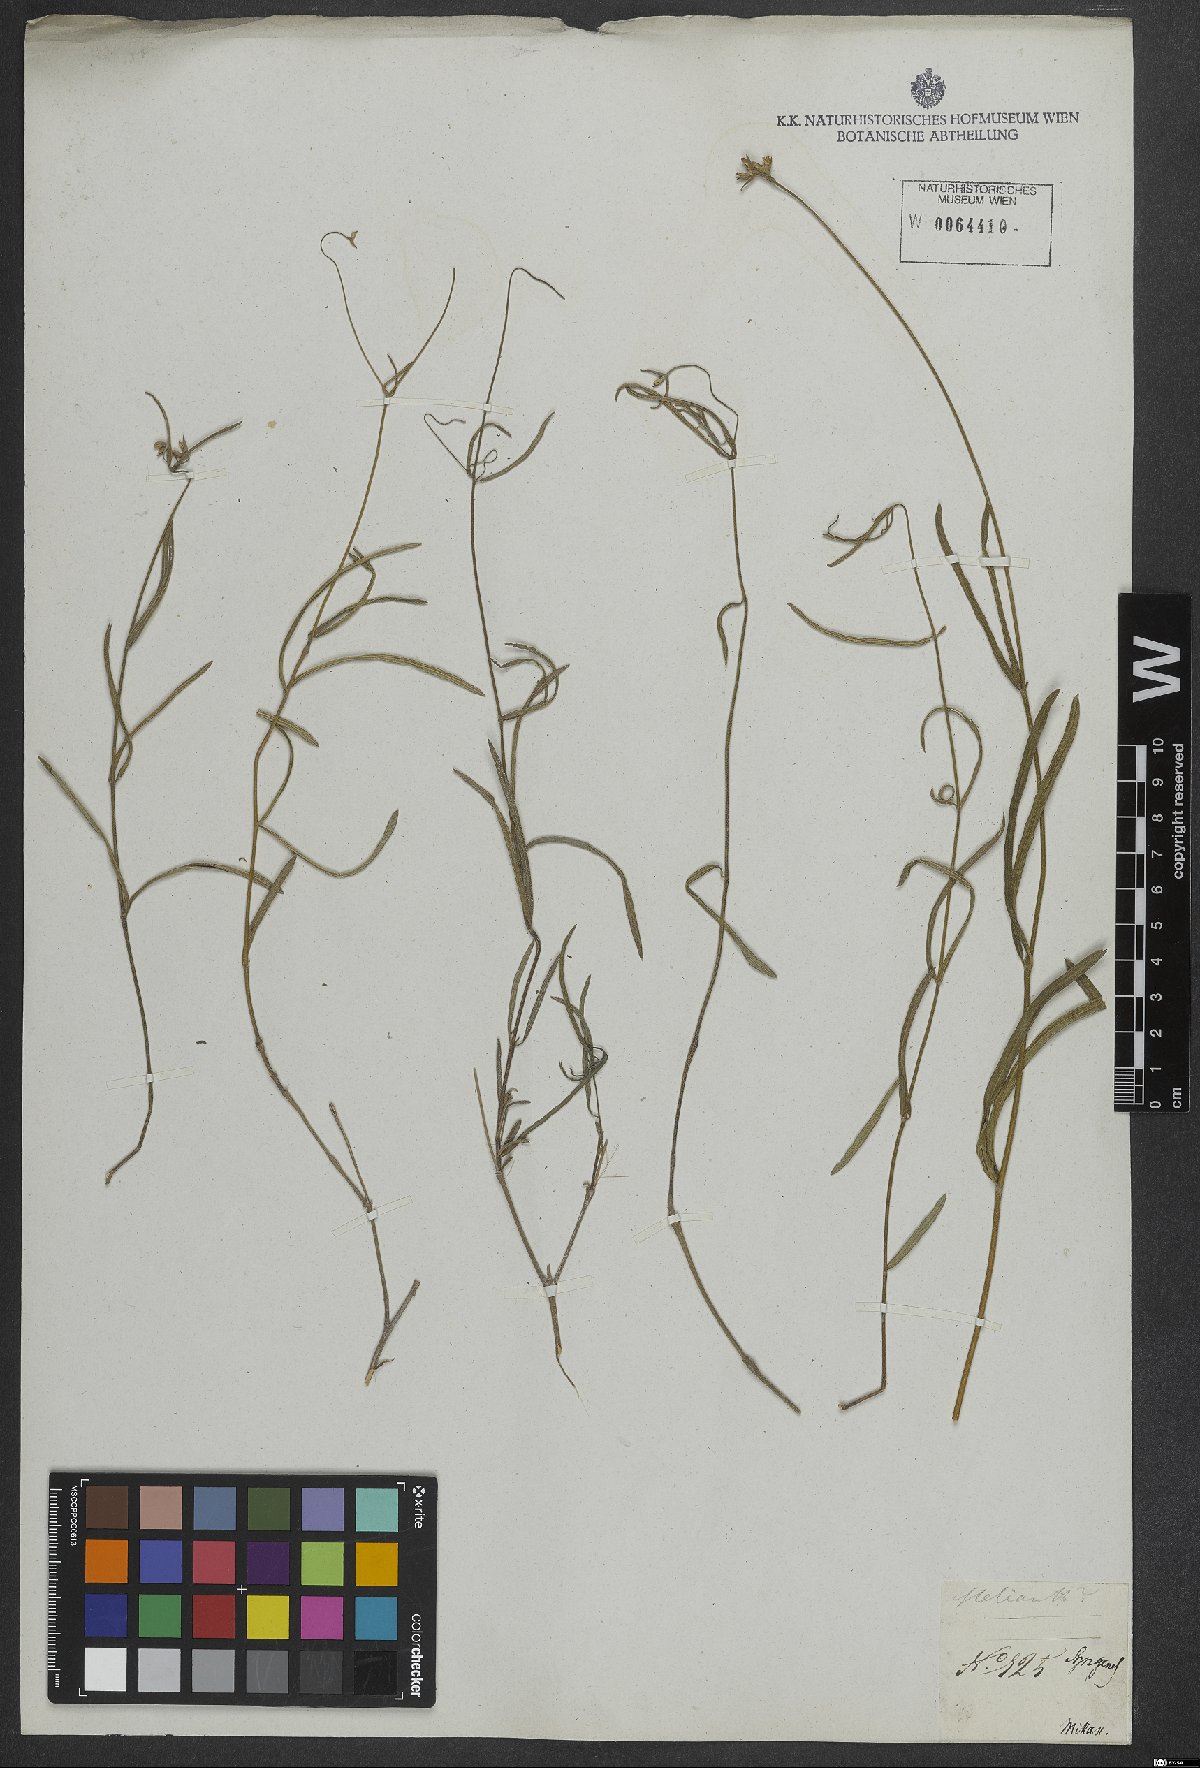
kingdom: Plantae
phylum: Tracheophyta
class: Magnoliopsida
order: Asterales
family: Asteraceae
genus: Verbesina
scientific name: Verbesina
